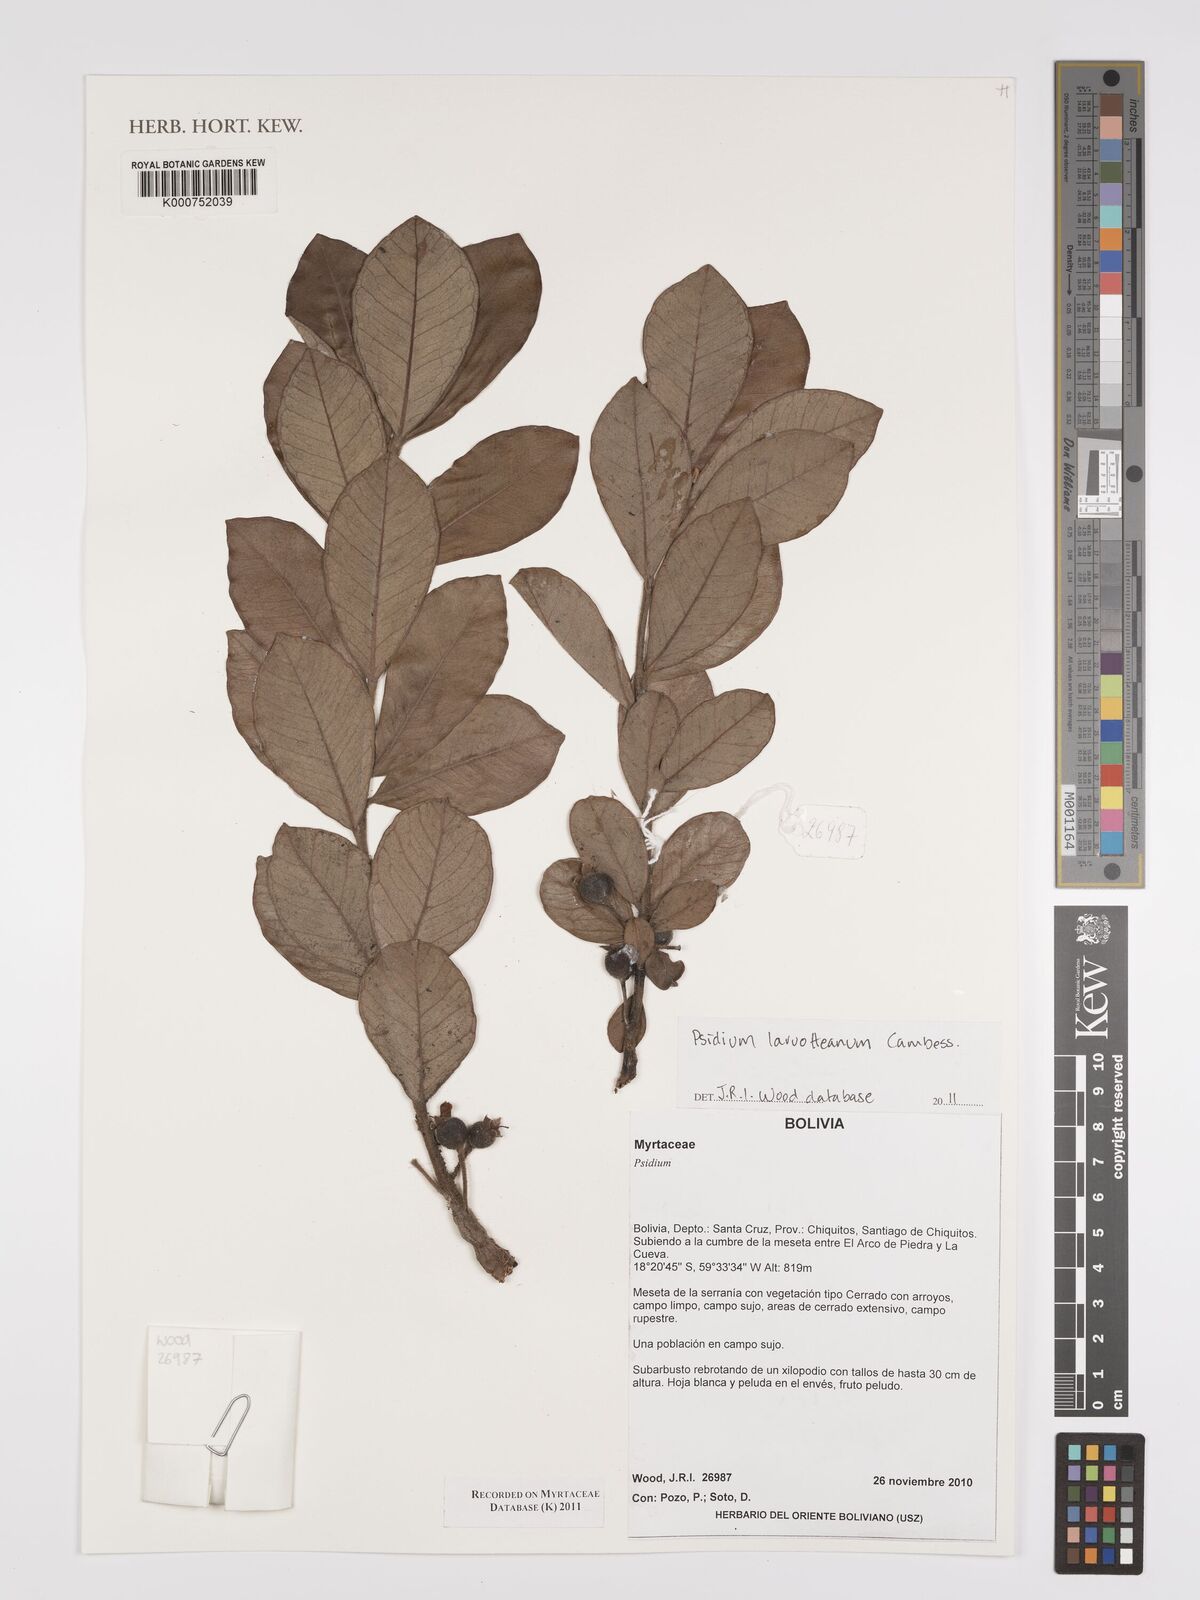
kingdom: Plantae
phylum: Tracheophyta
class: Magnoliopsida
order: Myrtales
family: Myrtaceae
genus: Psidium
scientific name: Psidium larueotteanum
